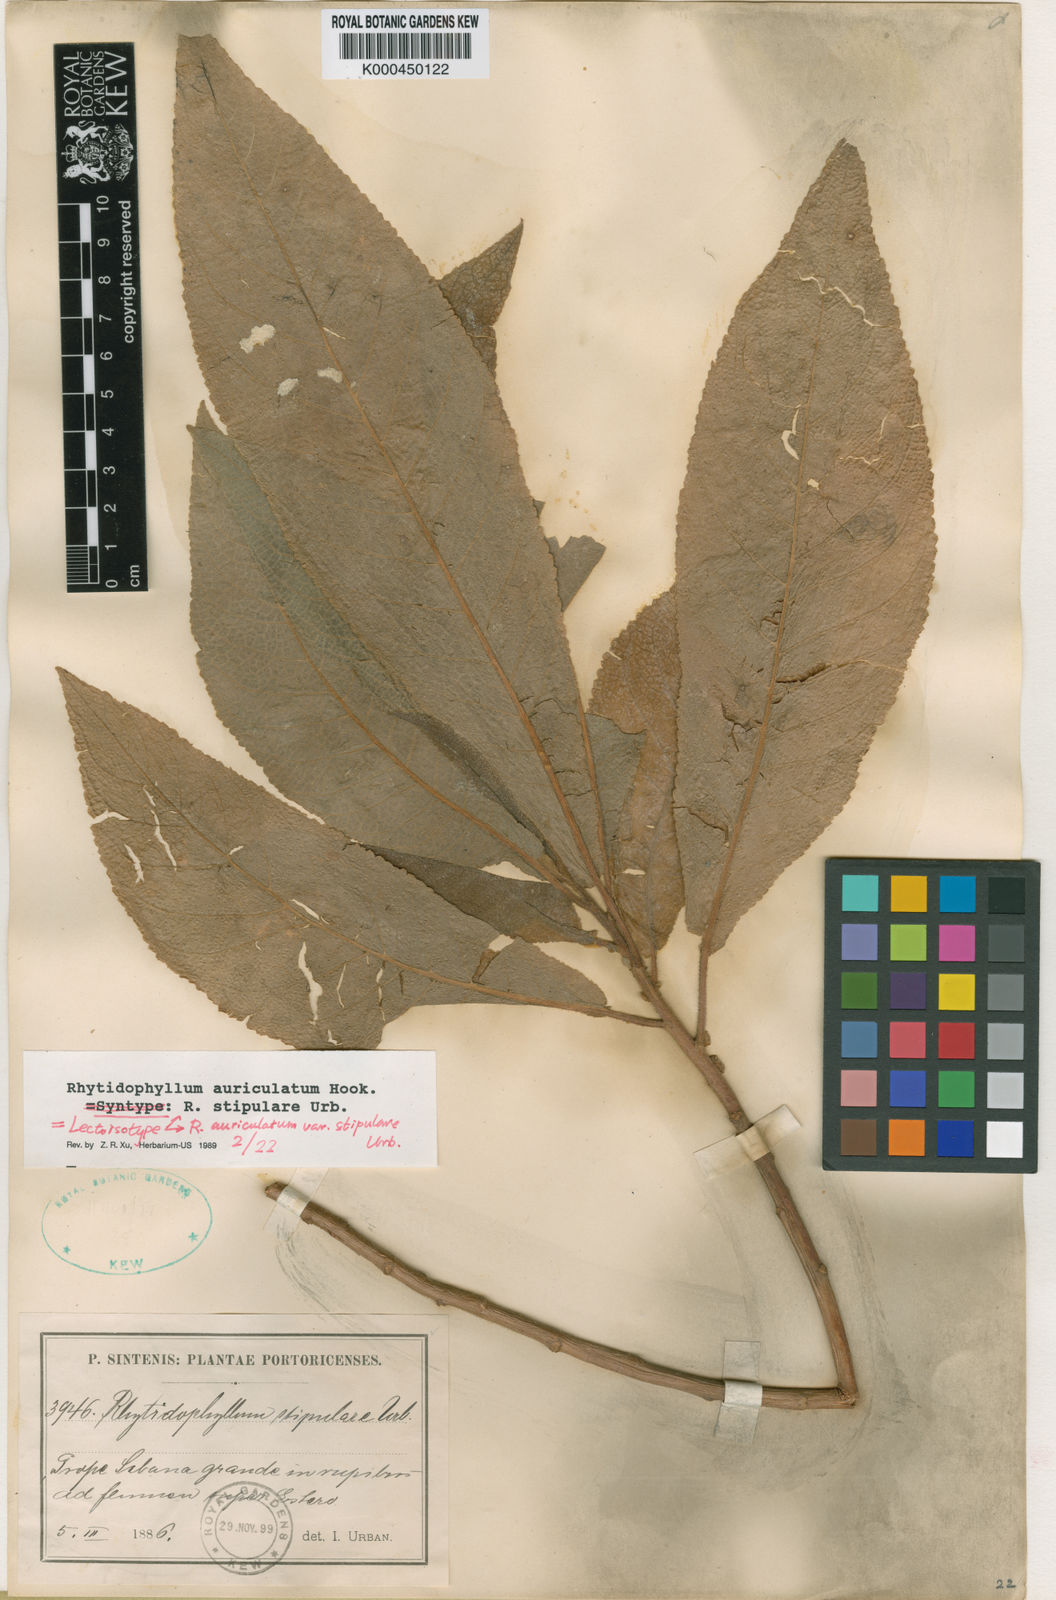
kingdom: Plantae
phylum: Tracheophyta
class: Magnoliopsida
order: Lamiales
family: Gesneriaceae
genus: Rhytidophyllum
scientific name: Rhytidophyllum auriculatum
